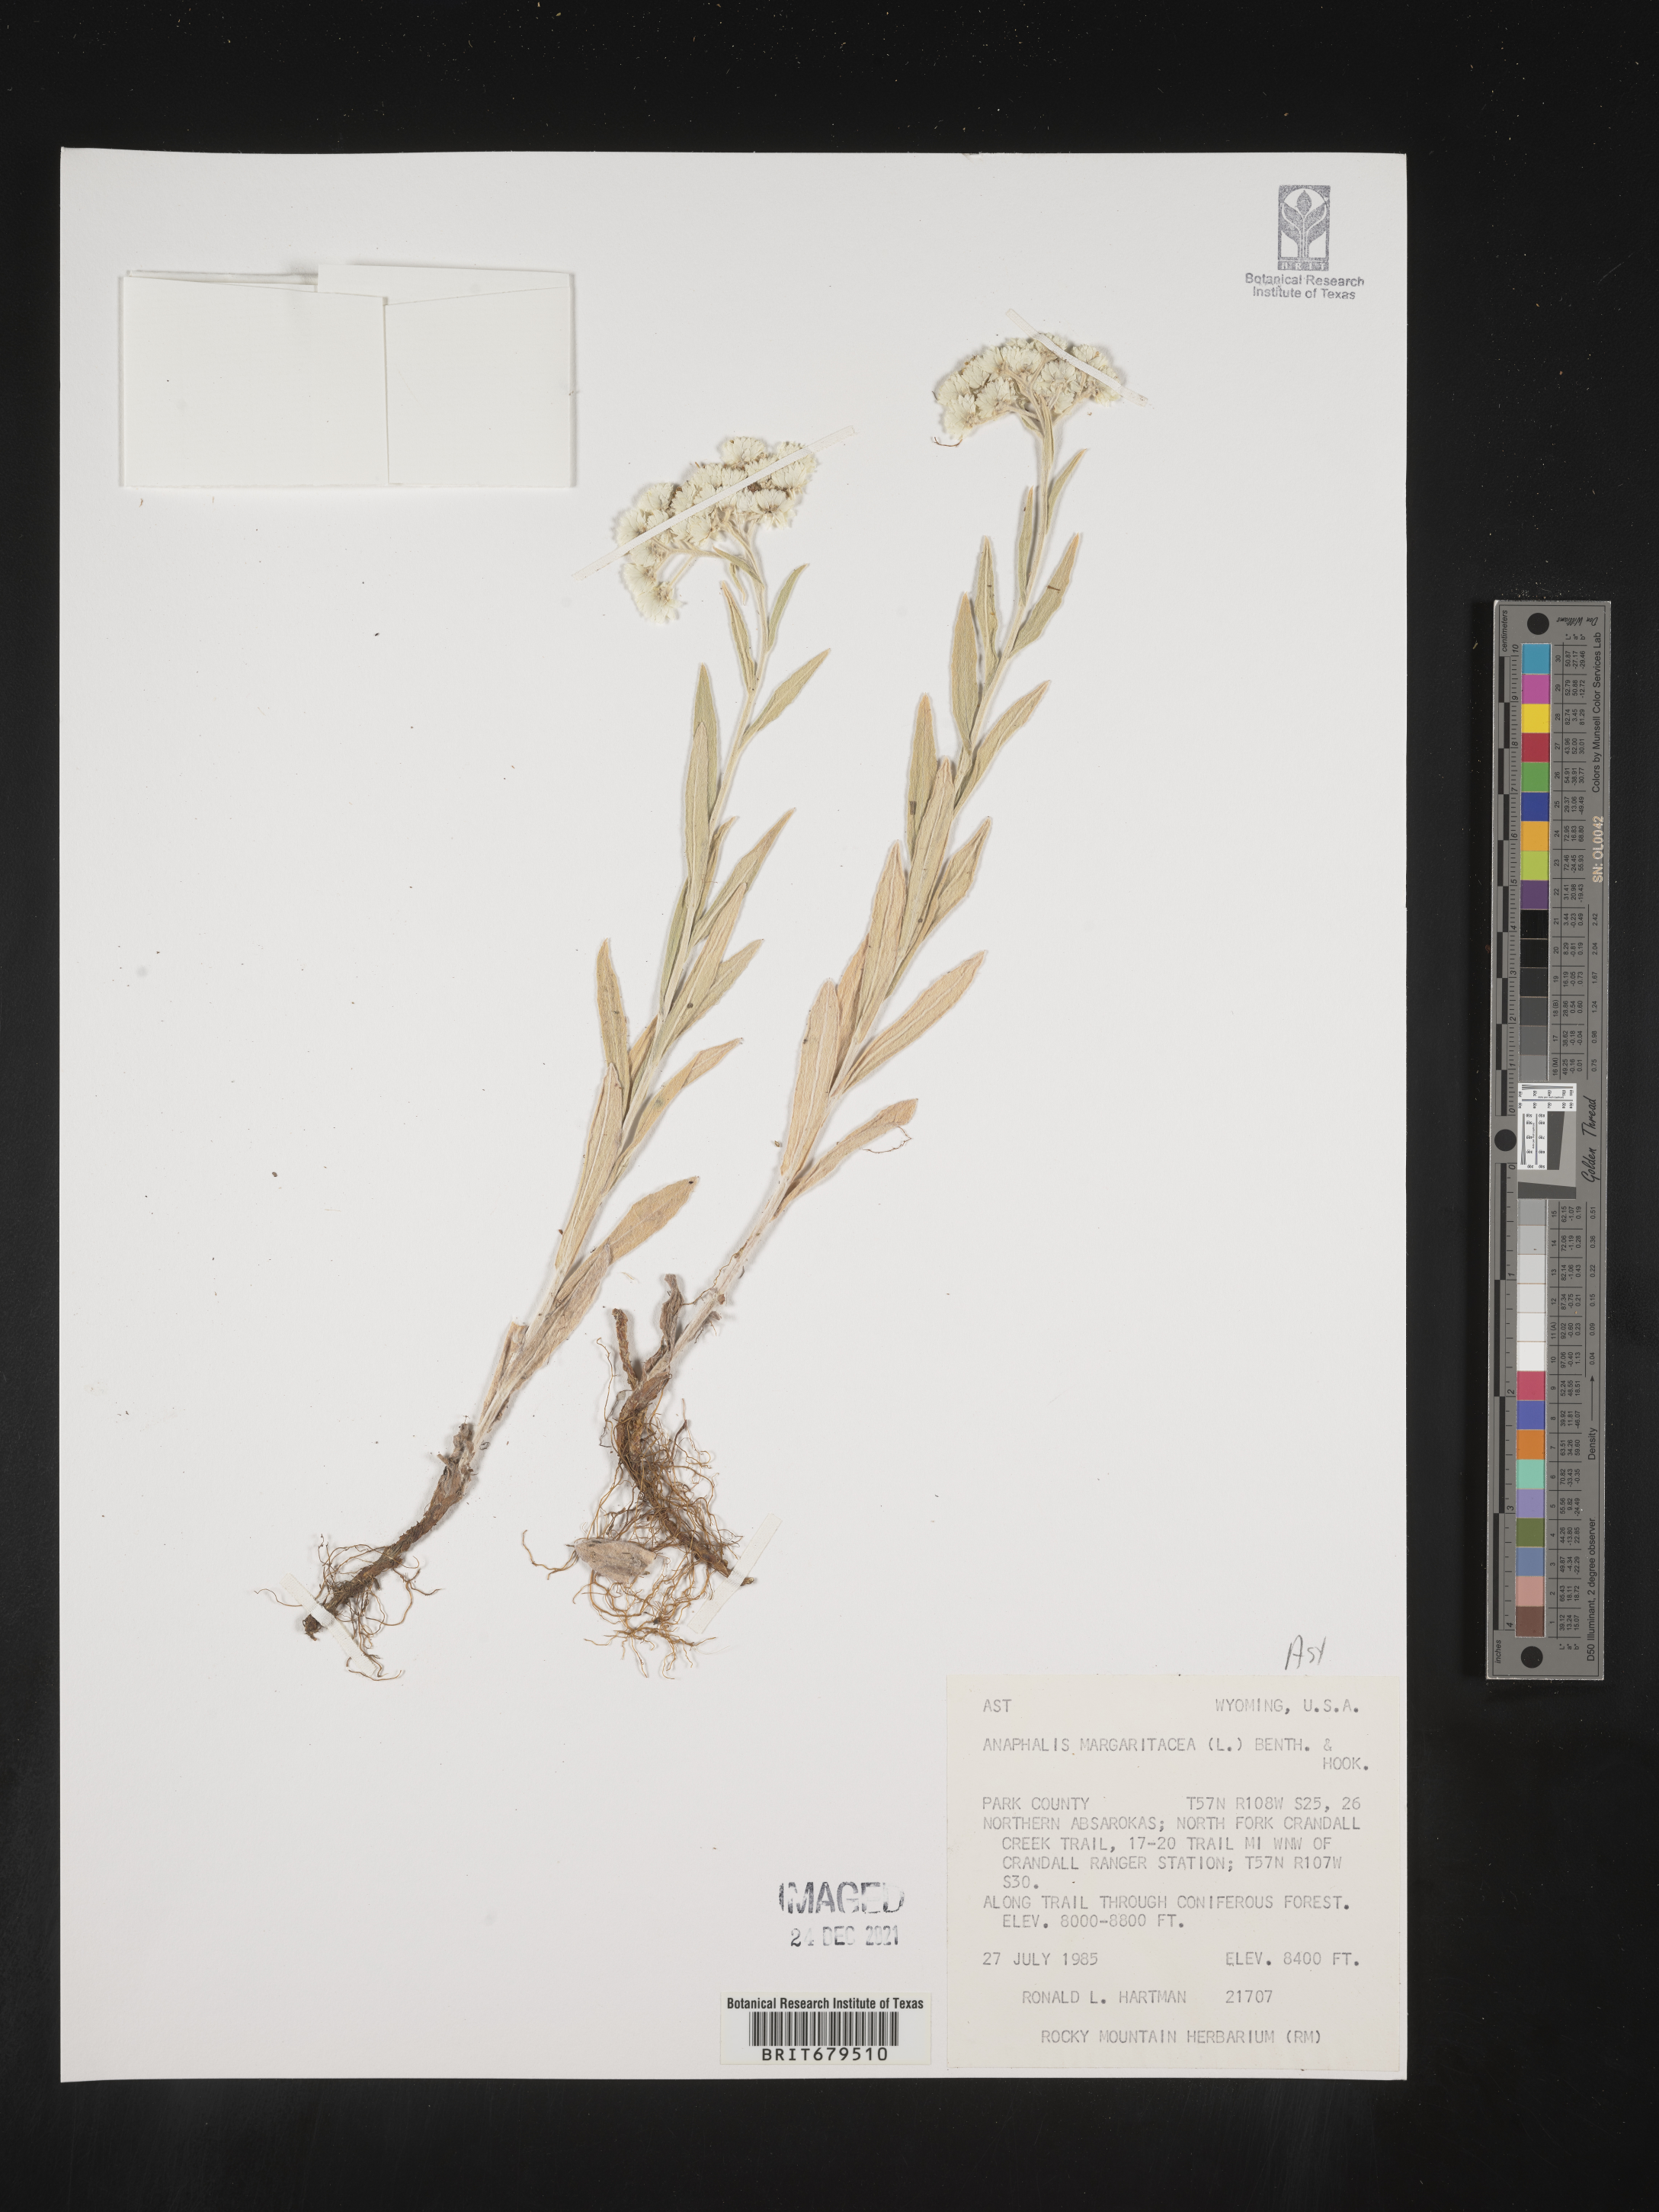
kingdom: Plantae
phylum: Tracheophyta
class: Magnoliopsida
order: Asterales
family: Asteraceae
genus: Anaphalis
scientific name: Anaphalis margaritacea
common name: Pearly everlasting
